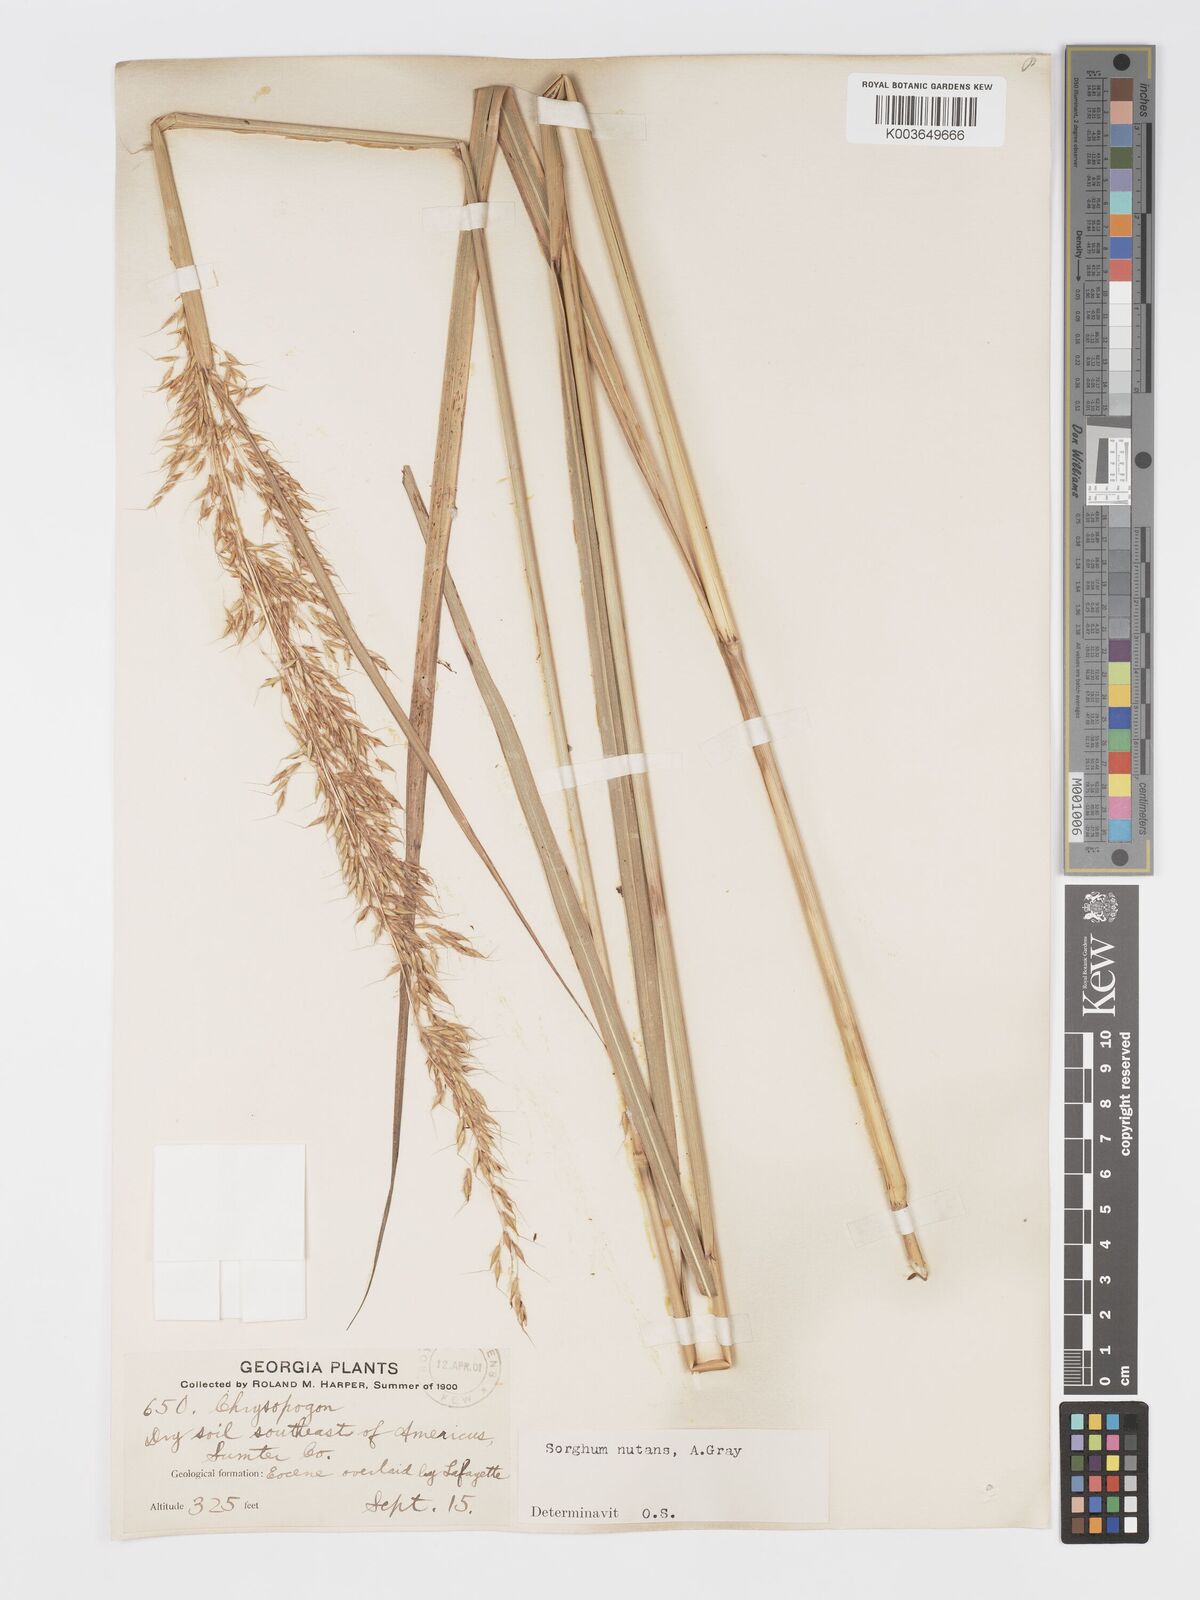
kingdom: Plantae
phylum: Tracheophyta
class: Liliopsida
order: Poales
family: Poaceae
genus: Sorghastrum
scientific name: Sorghastrum nutans
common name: Indian grass
